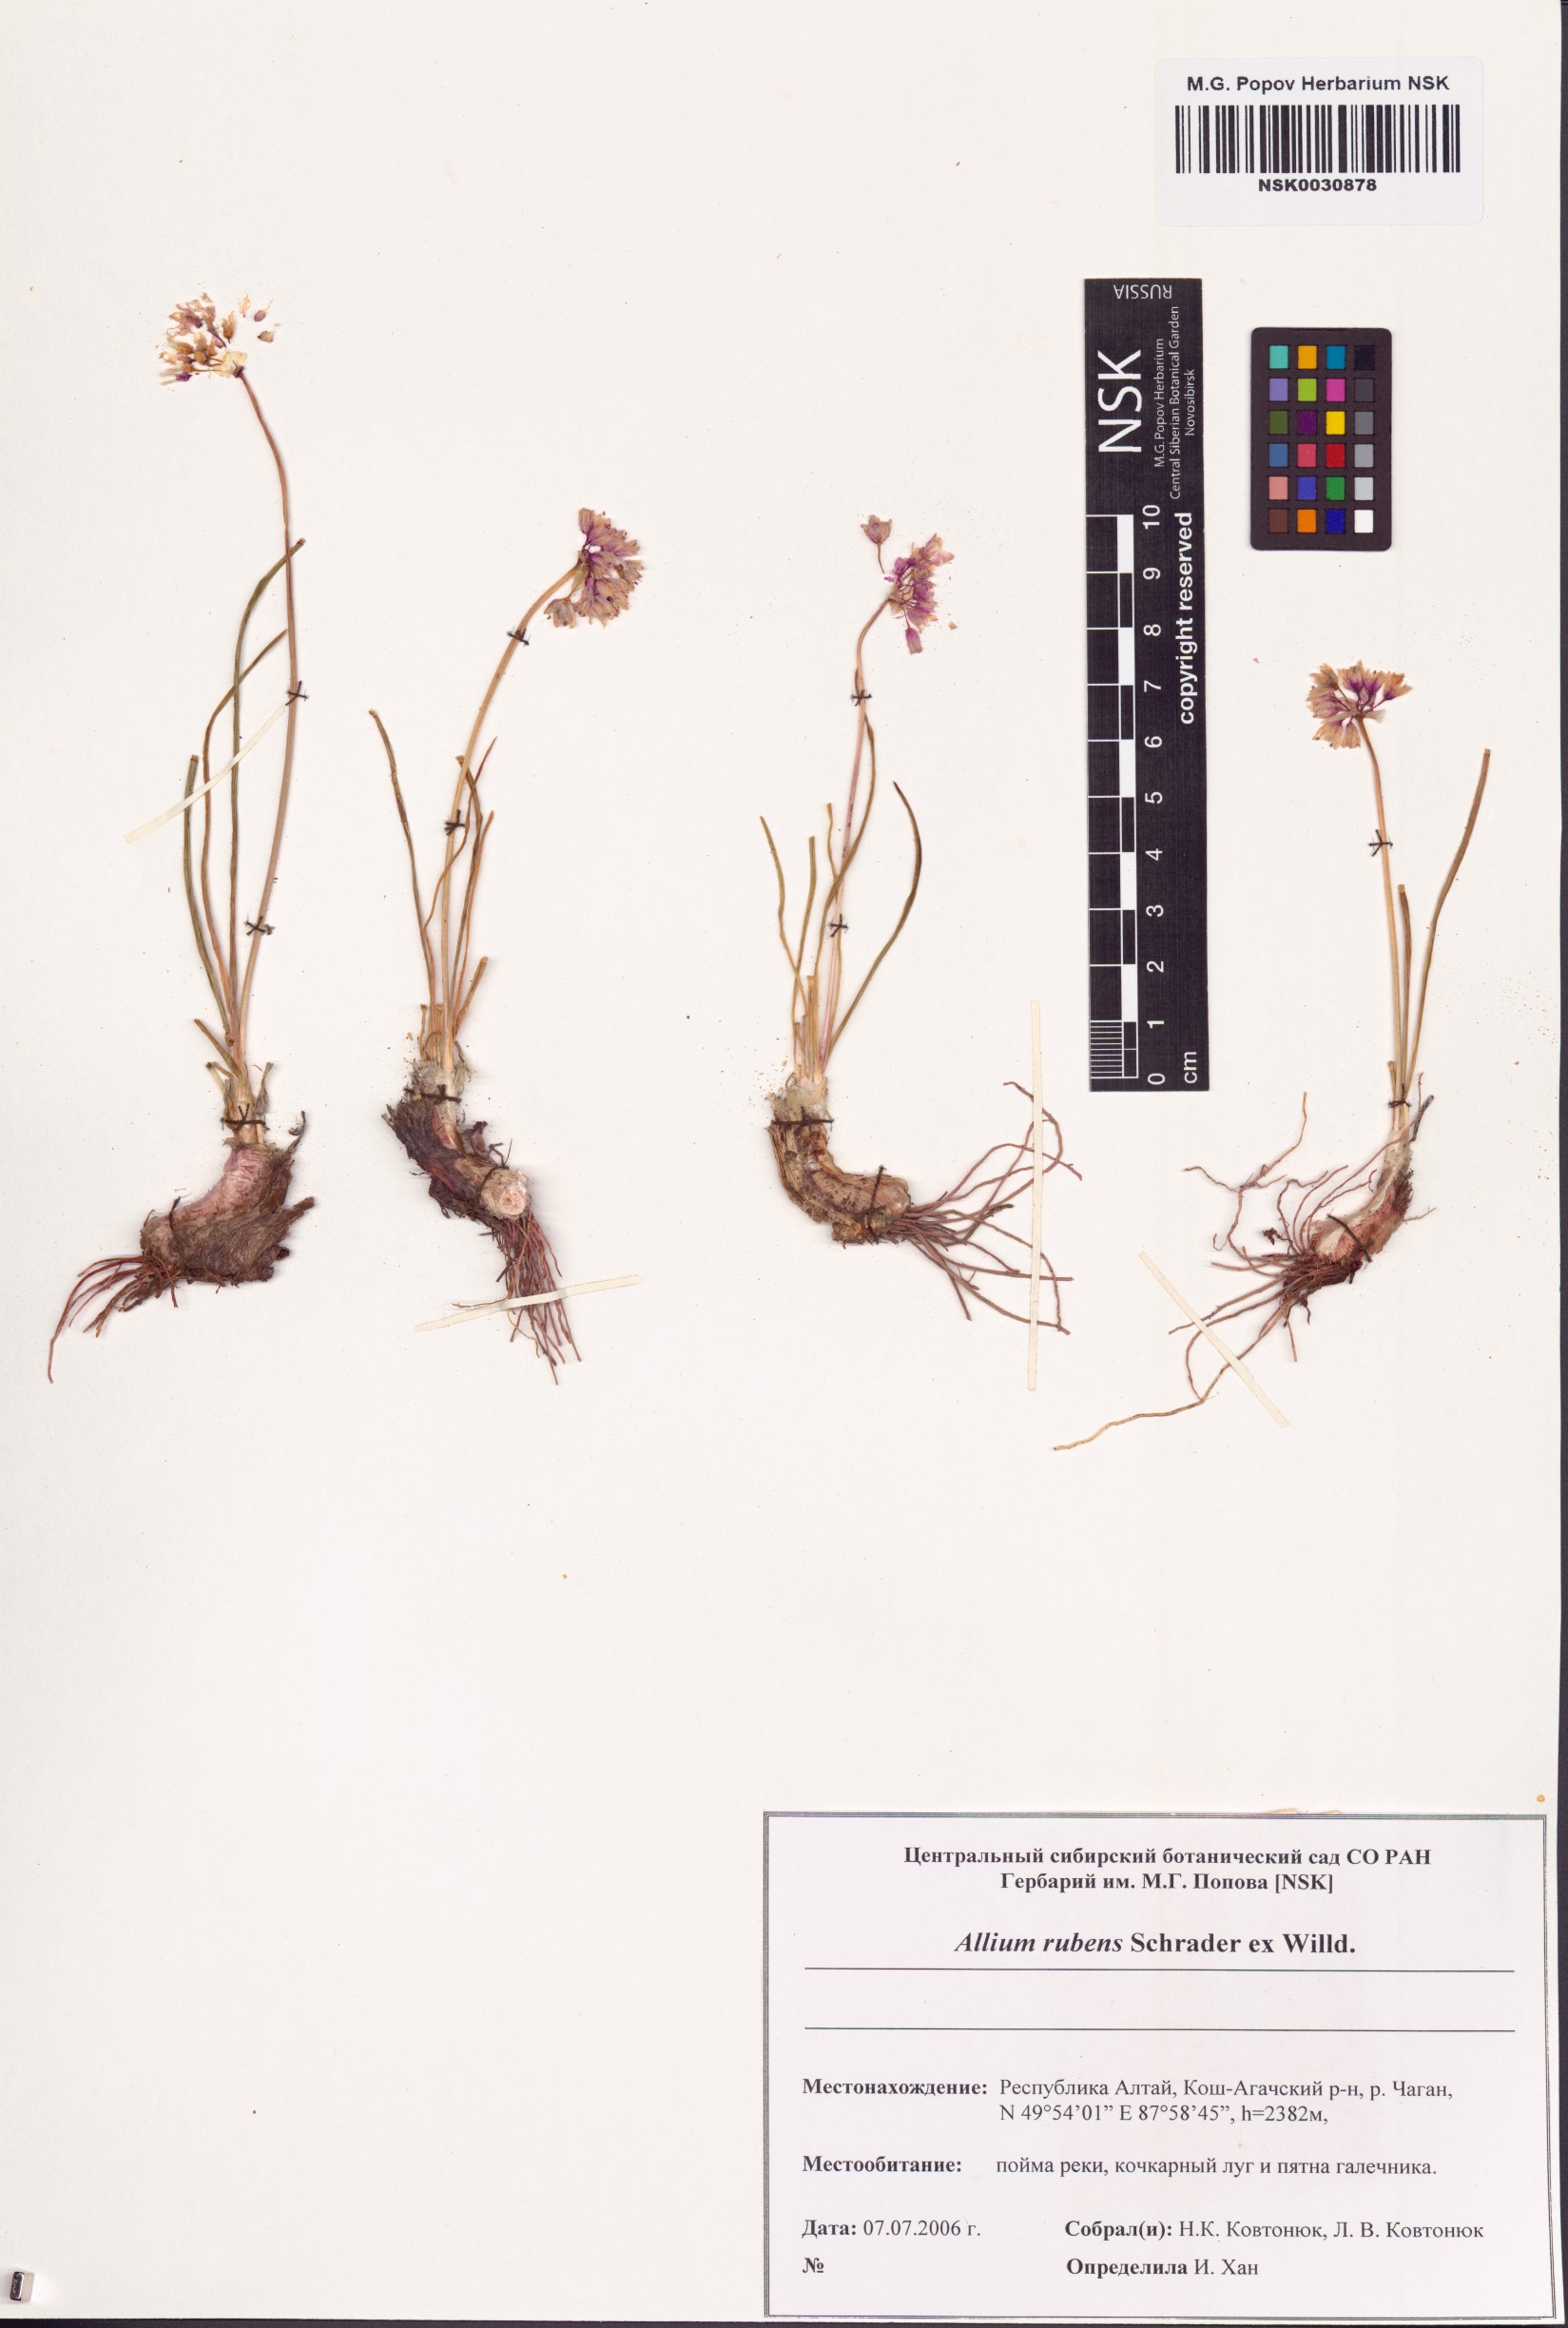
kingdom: Plantae
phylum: Tracheophyta
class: Liliopsida
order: Asparagales
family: Amaryllidaceae
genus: Allium
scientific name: Allium rubens
